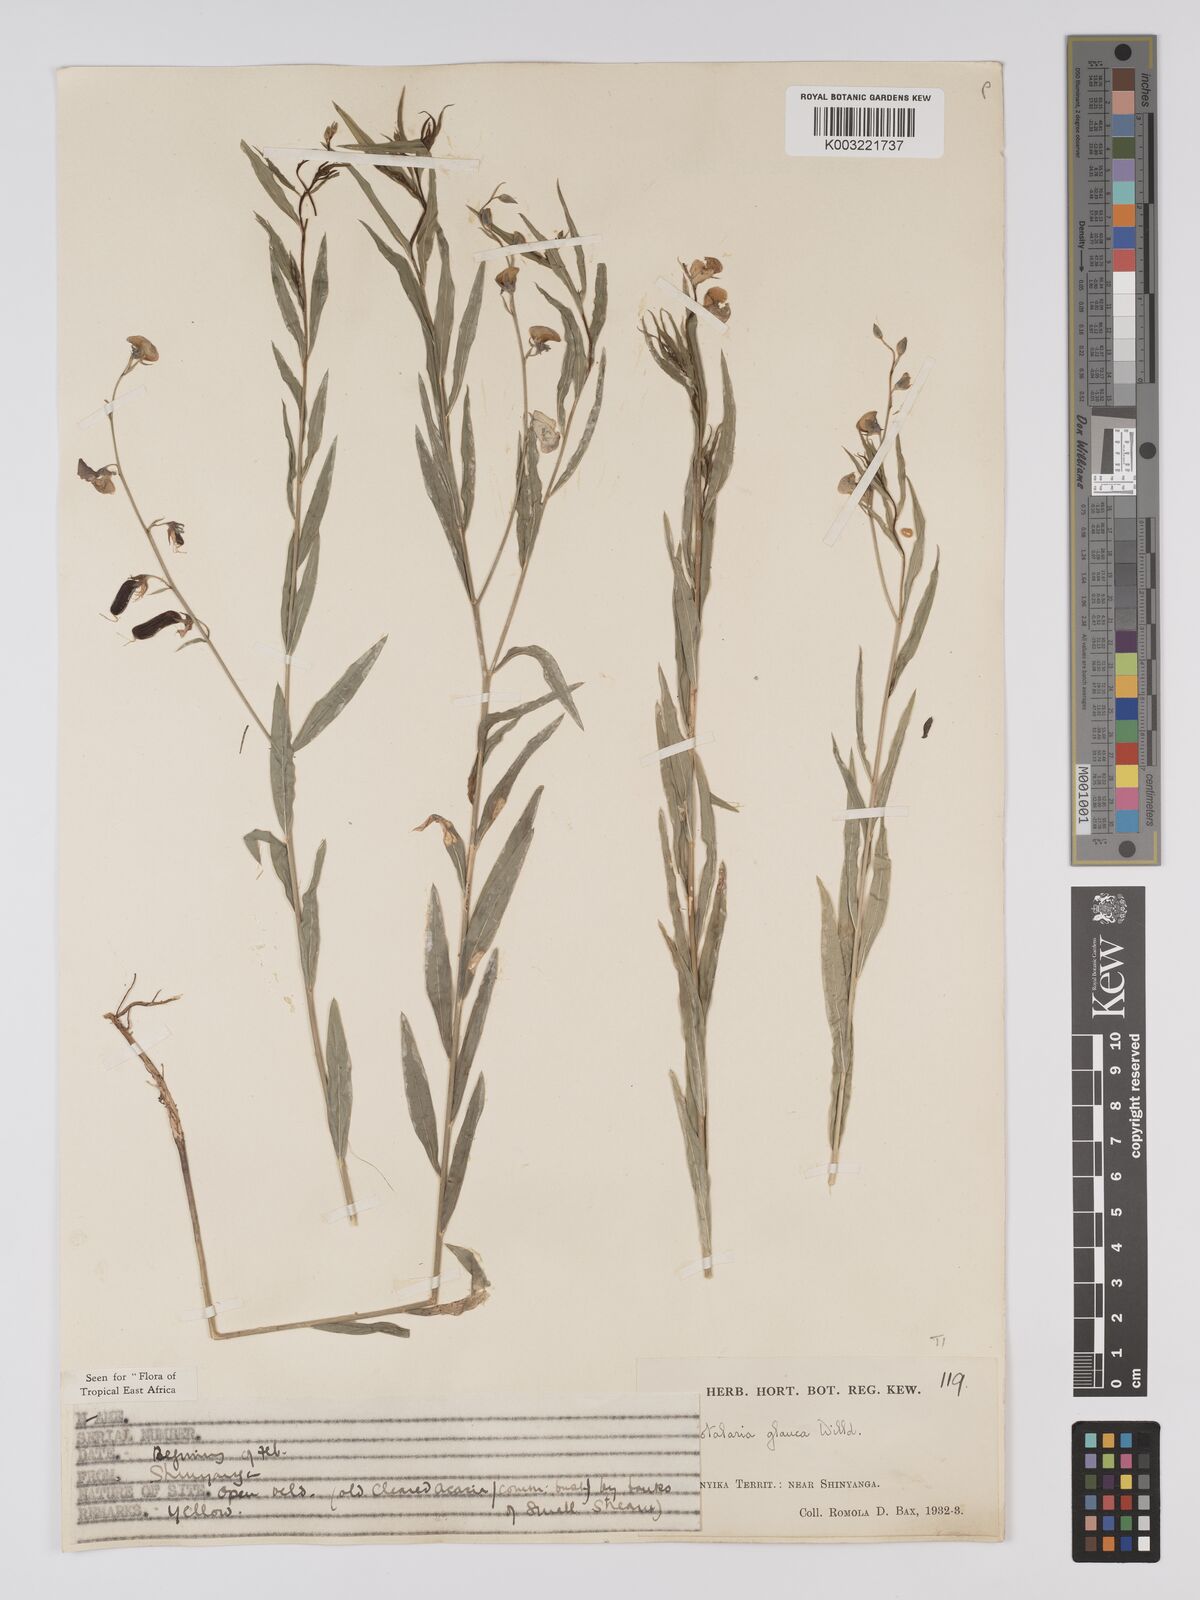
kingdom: Plantae
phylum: Tracheophyta
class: Magnoliopsida
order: Fabales
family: Fabaceae
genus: Crotalaria
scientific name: Crotalaria glauca
